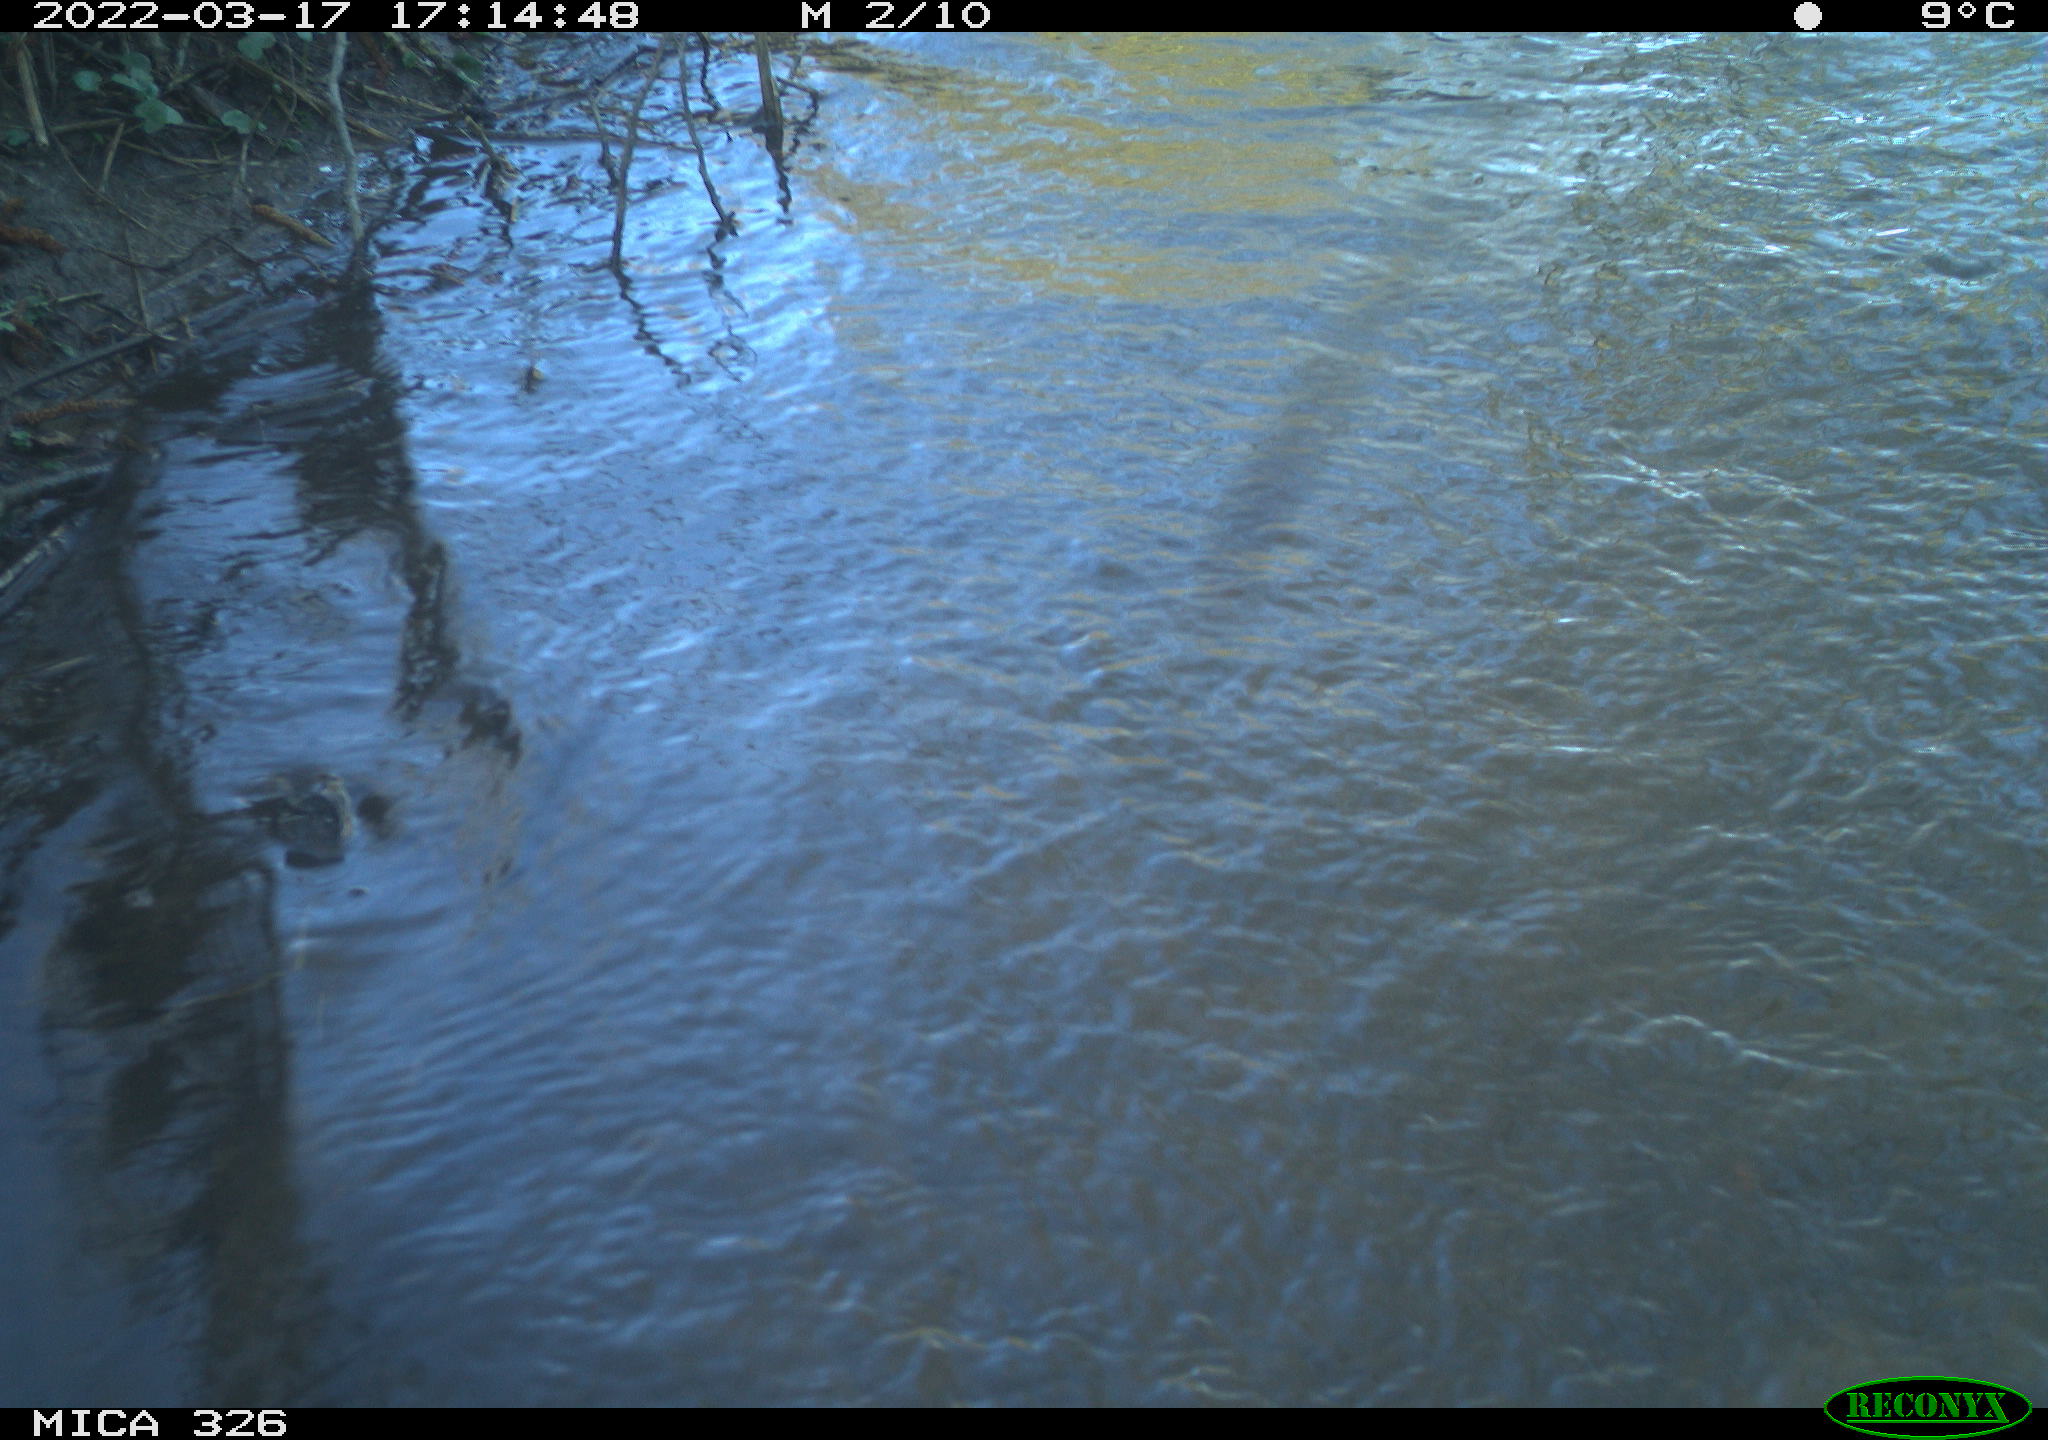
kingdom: Animalia
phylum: Chordata
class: Aves
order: Gruiformes
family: Rallidae
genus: Fulica
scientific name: Fulica atra
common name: Eurasian coot
